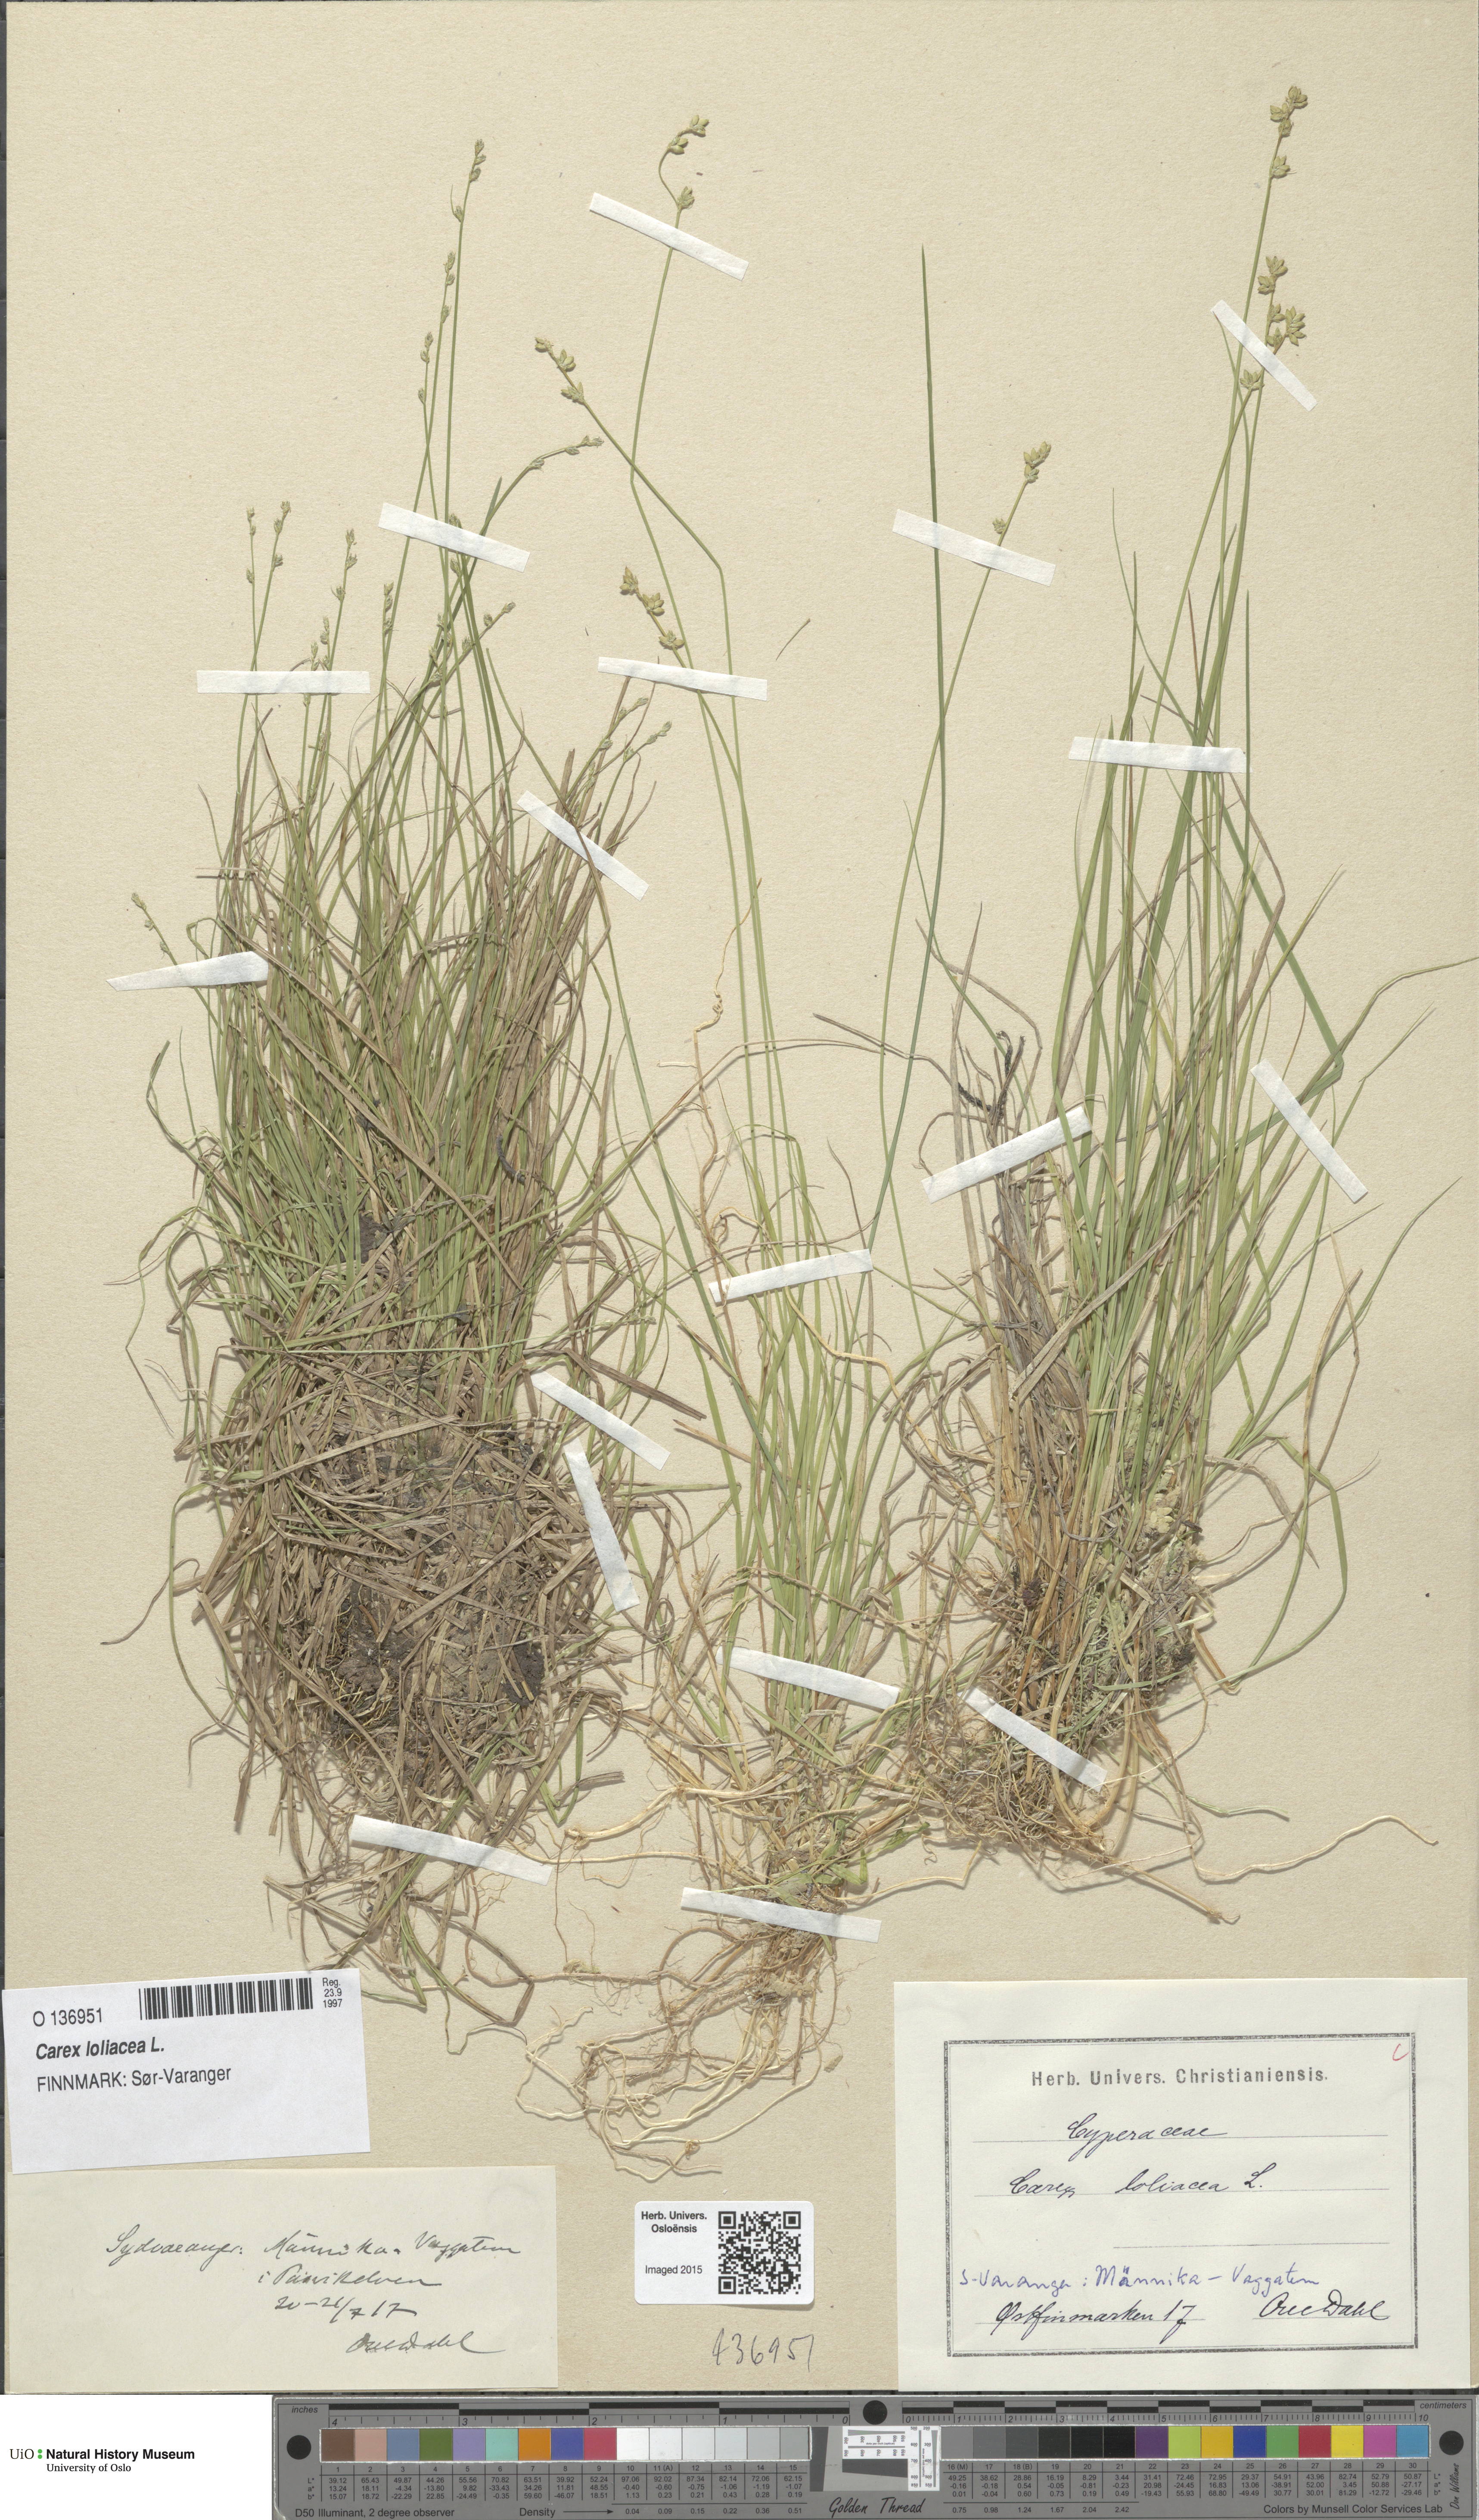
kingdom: Plantae
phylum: Tracheophyta
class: Liliopsida
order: Poales
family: Cyperaceae
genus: Carex
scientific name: Carex loliacea
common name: Ryegrass sedge
